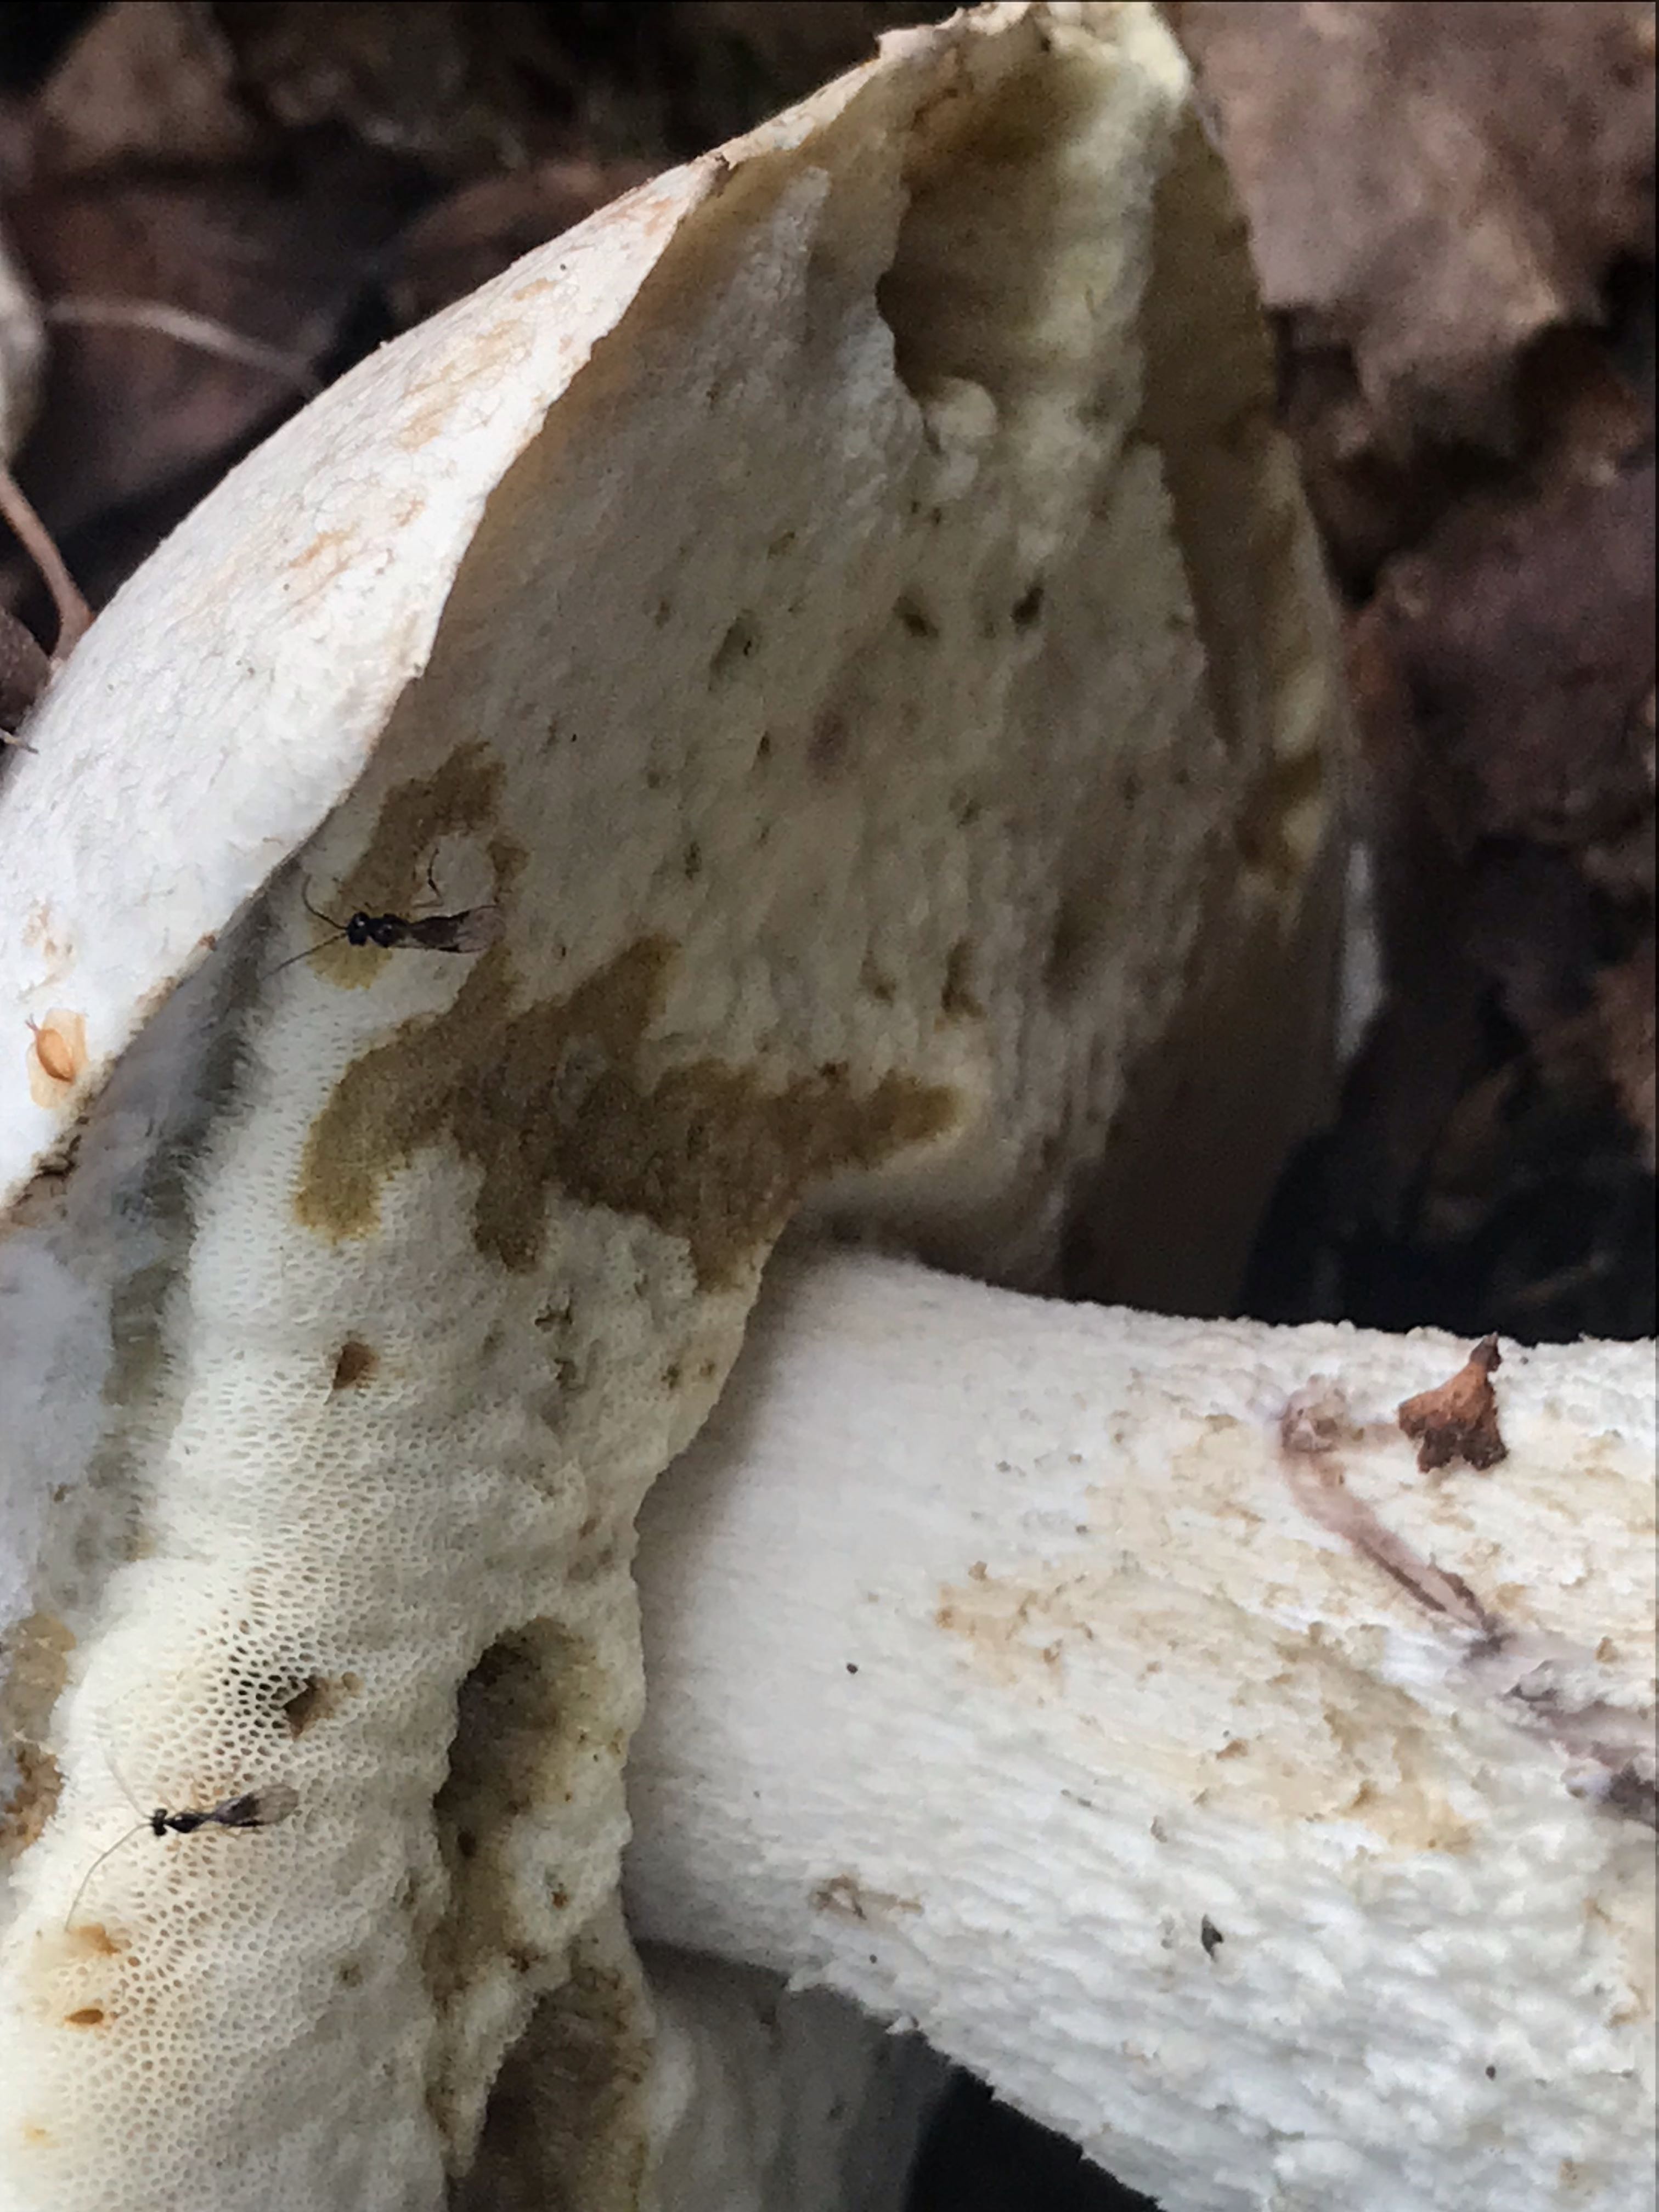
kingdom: Fungi
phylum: Basidiomycota
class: Agaricomycetes
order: Boletales
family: Boletaceae
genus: Leccinum
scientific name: Leccinum
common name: skælrørhat
